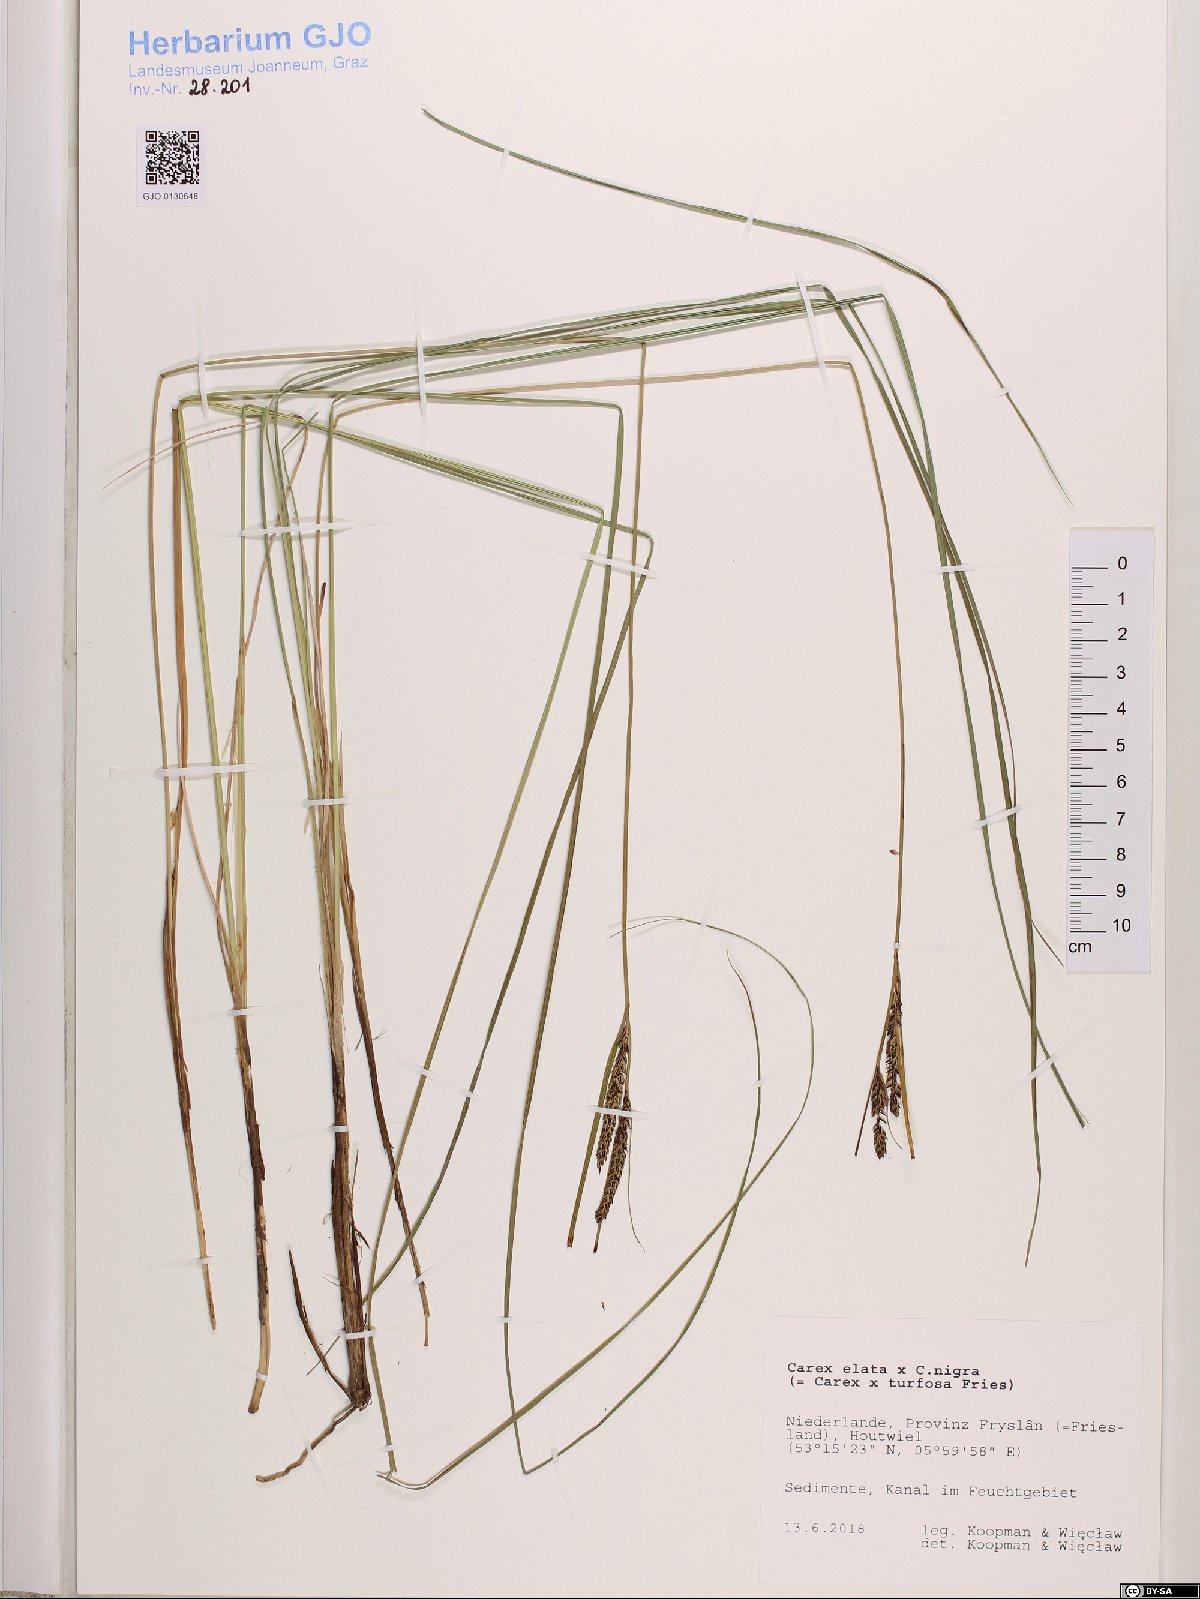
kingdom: Plantae
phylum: Tracheophyta
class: Liliopsida
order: Poales
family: Cyperaceae
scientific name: Cyperaceae
